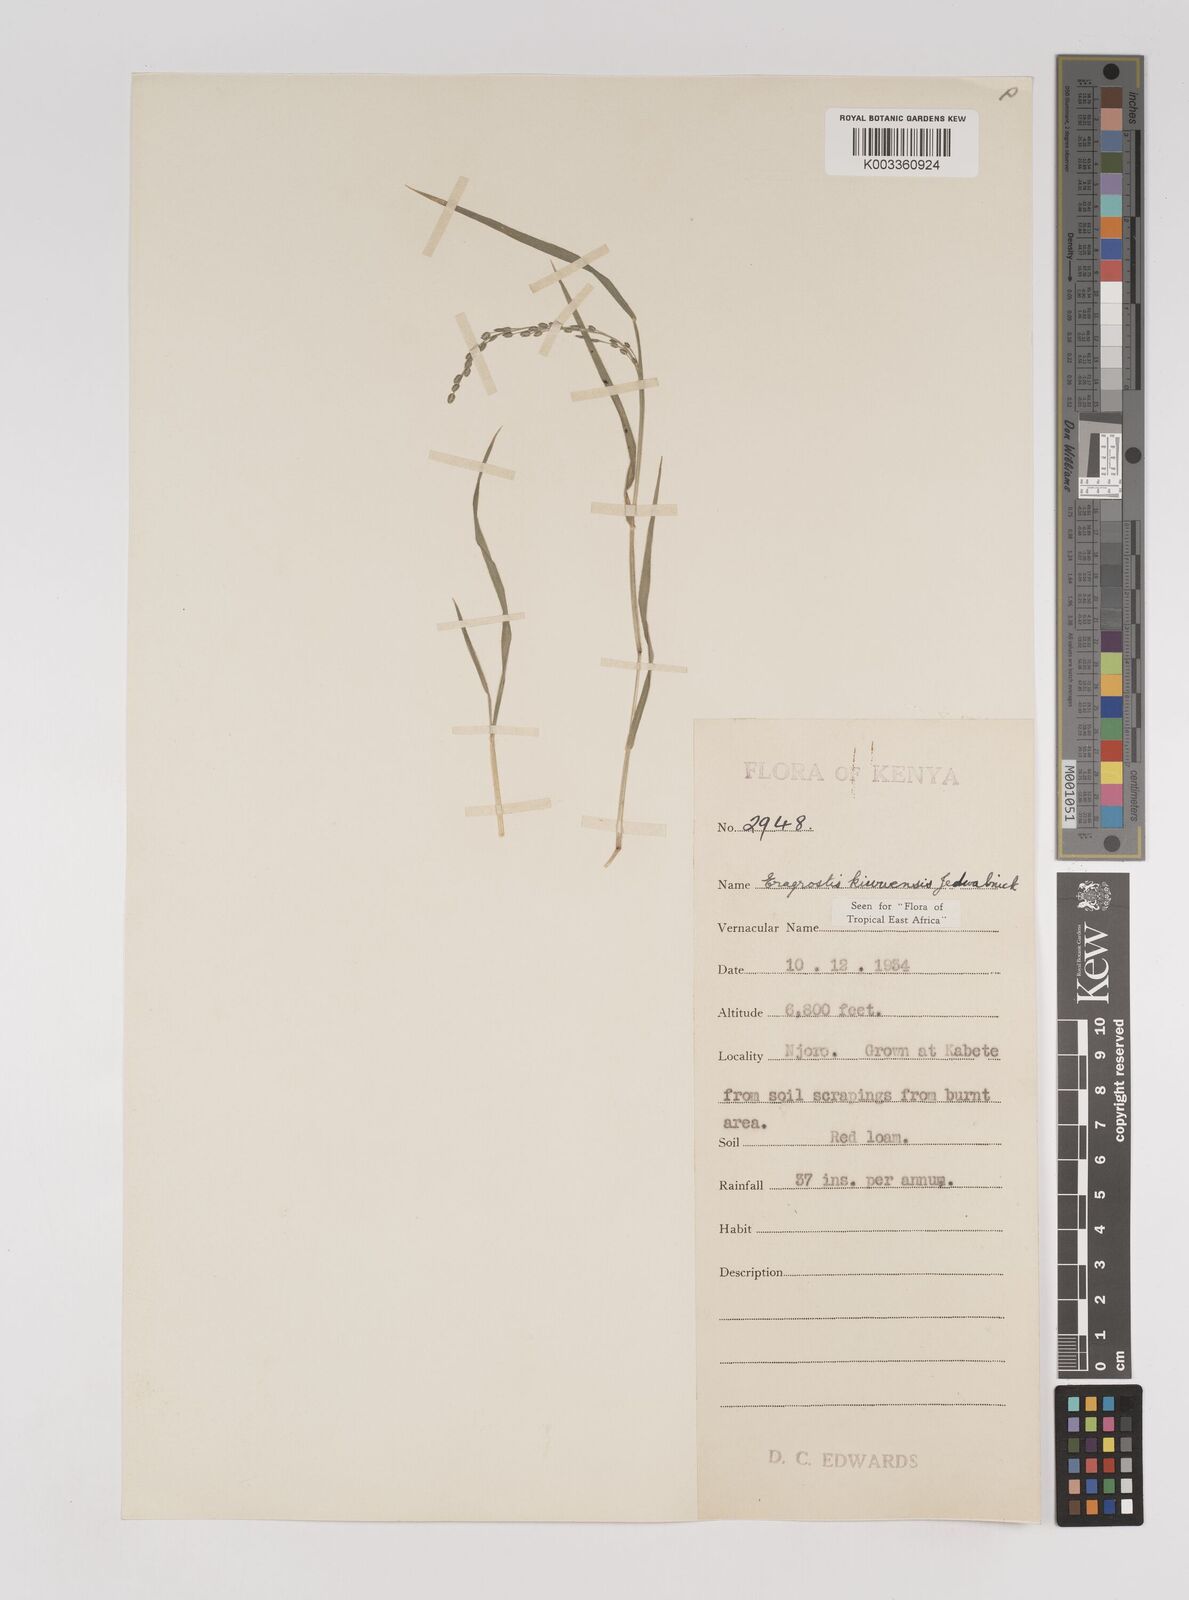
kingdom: Plantae
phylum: Tracheophyta
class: Liliopsida
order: Poales
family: Poaceae
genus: Eragrostis
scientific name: Eragrostis schweinfurthii
